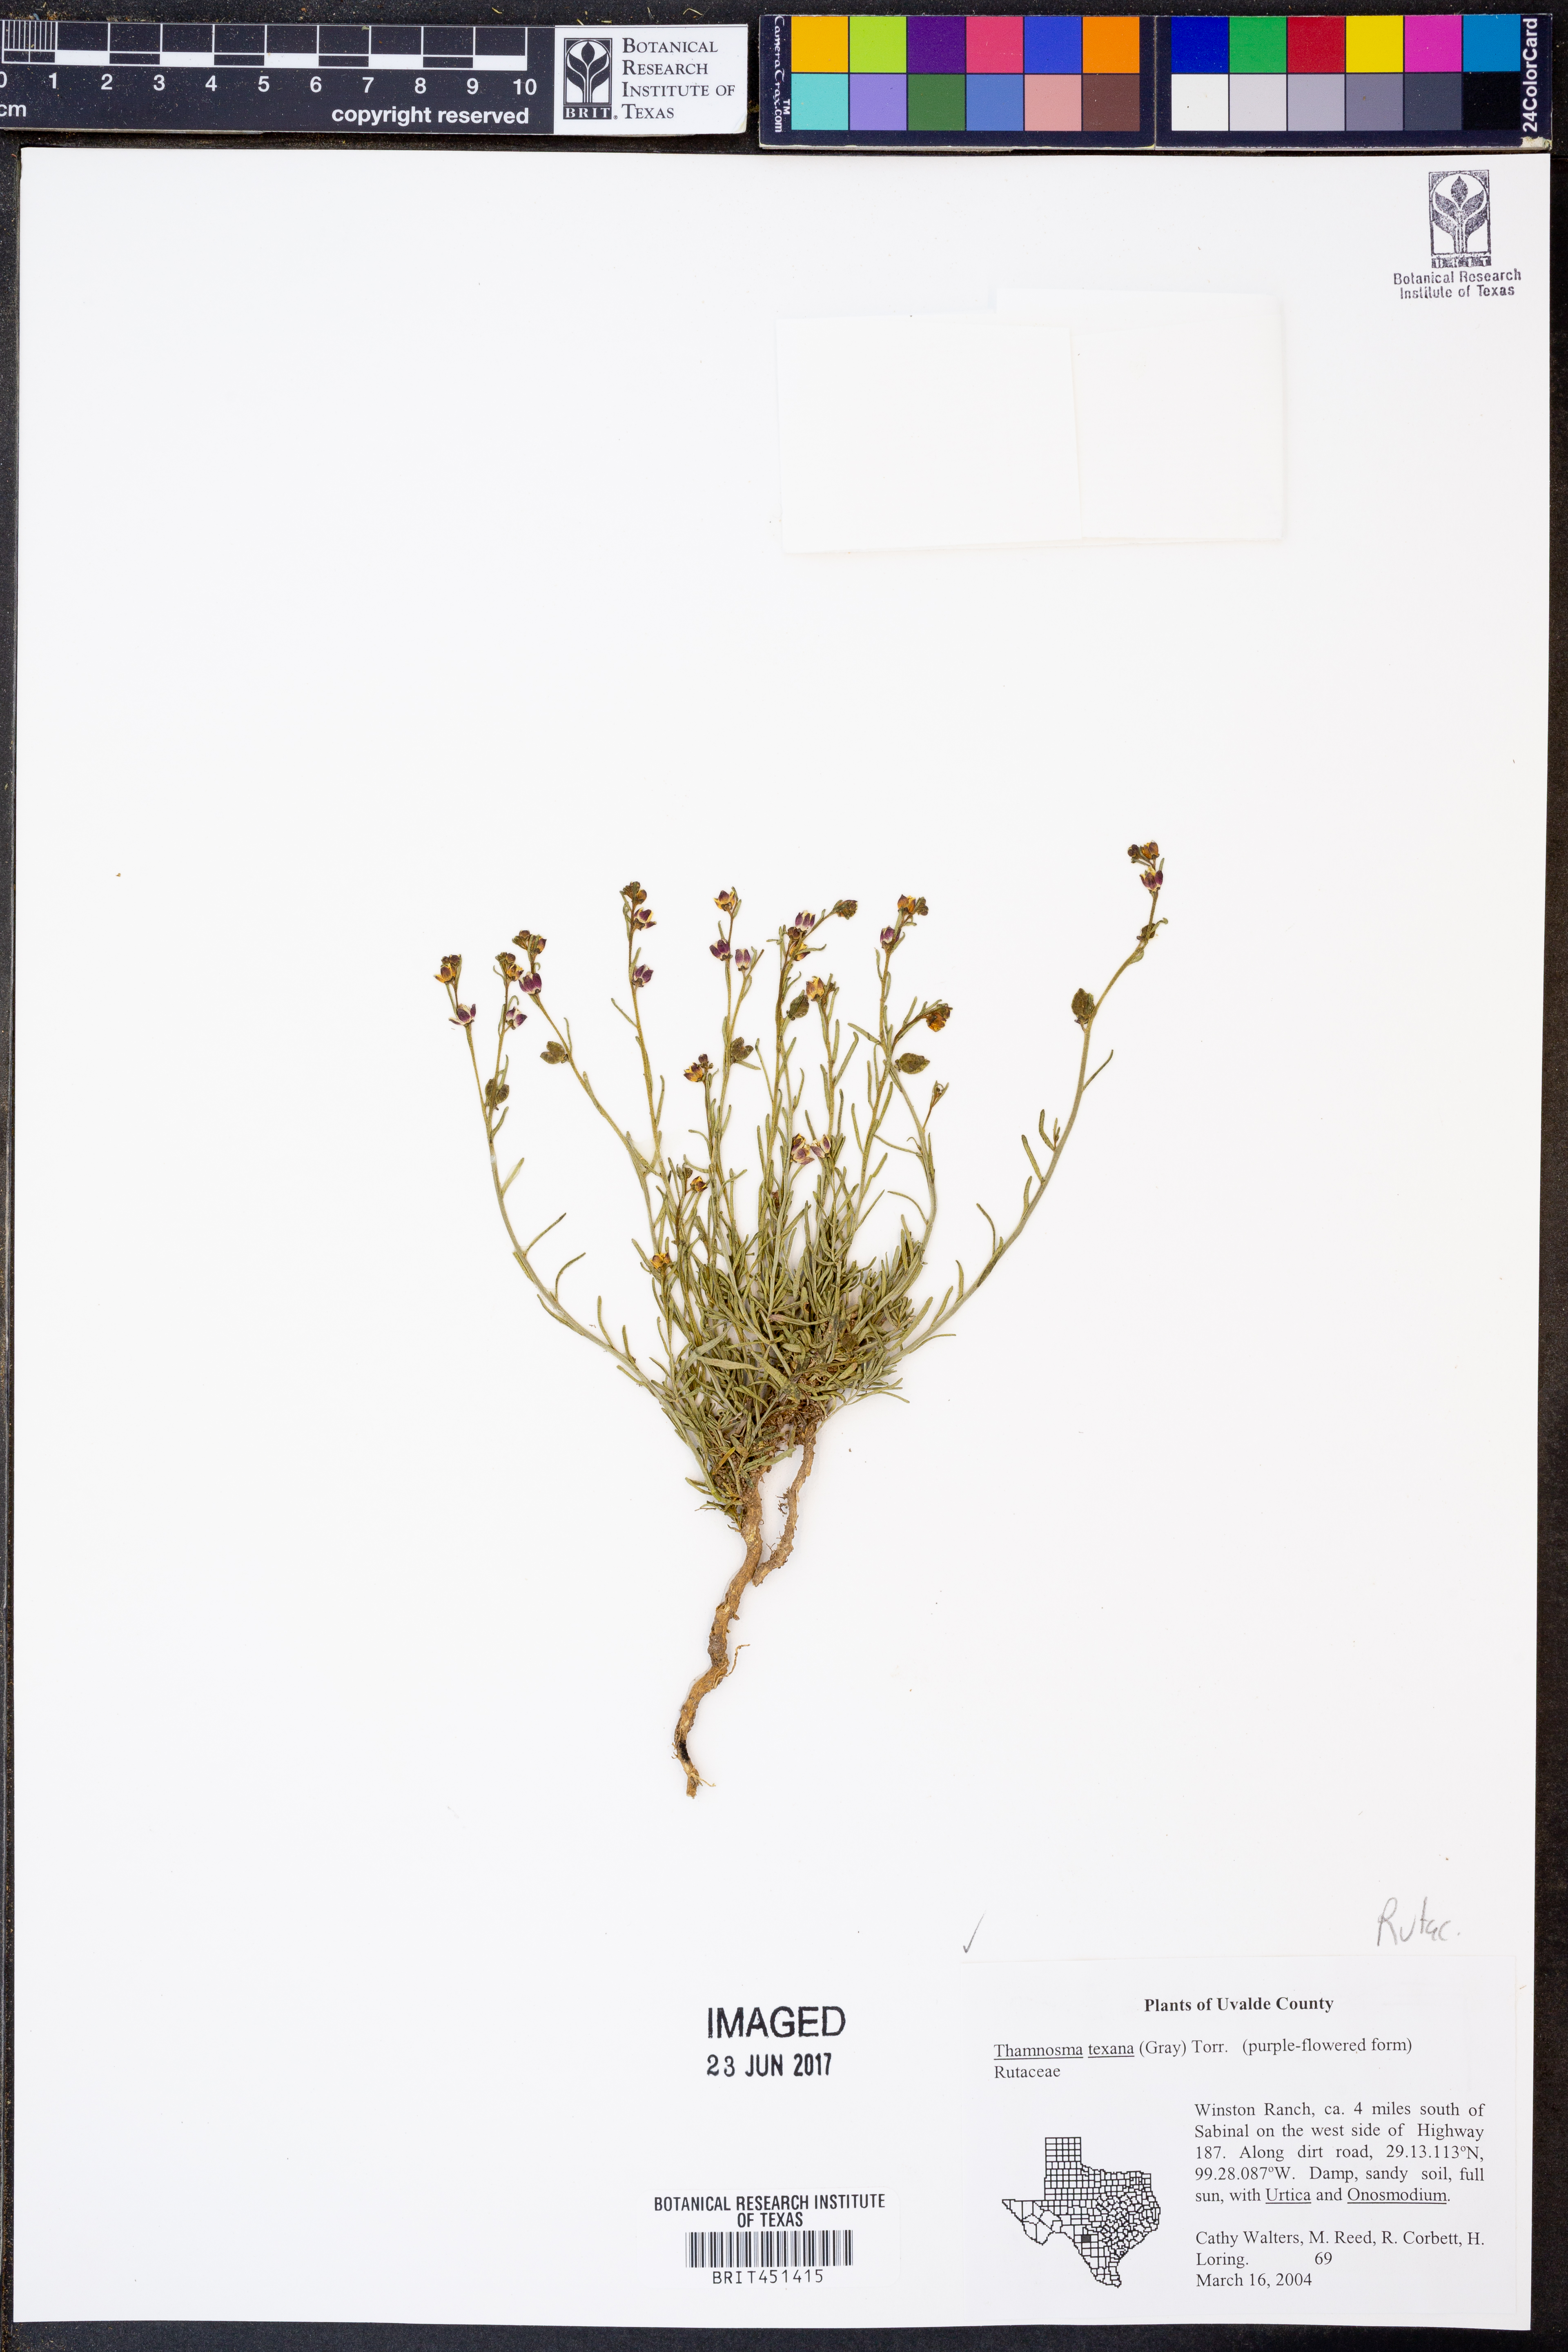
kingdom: Plantae
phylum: Tracheophyta
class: Magnoliopsida
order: Sapindales
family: Rutaceae
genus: Thamnosma
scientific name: Thamnosma texana
